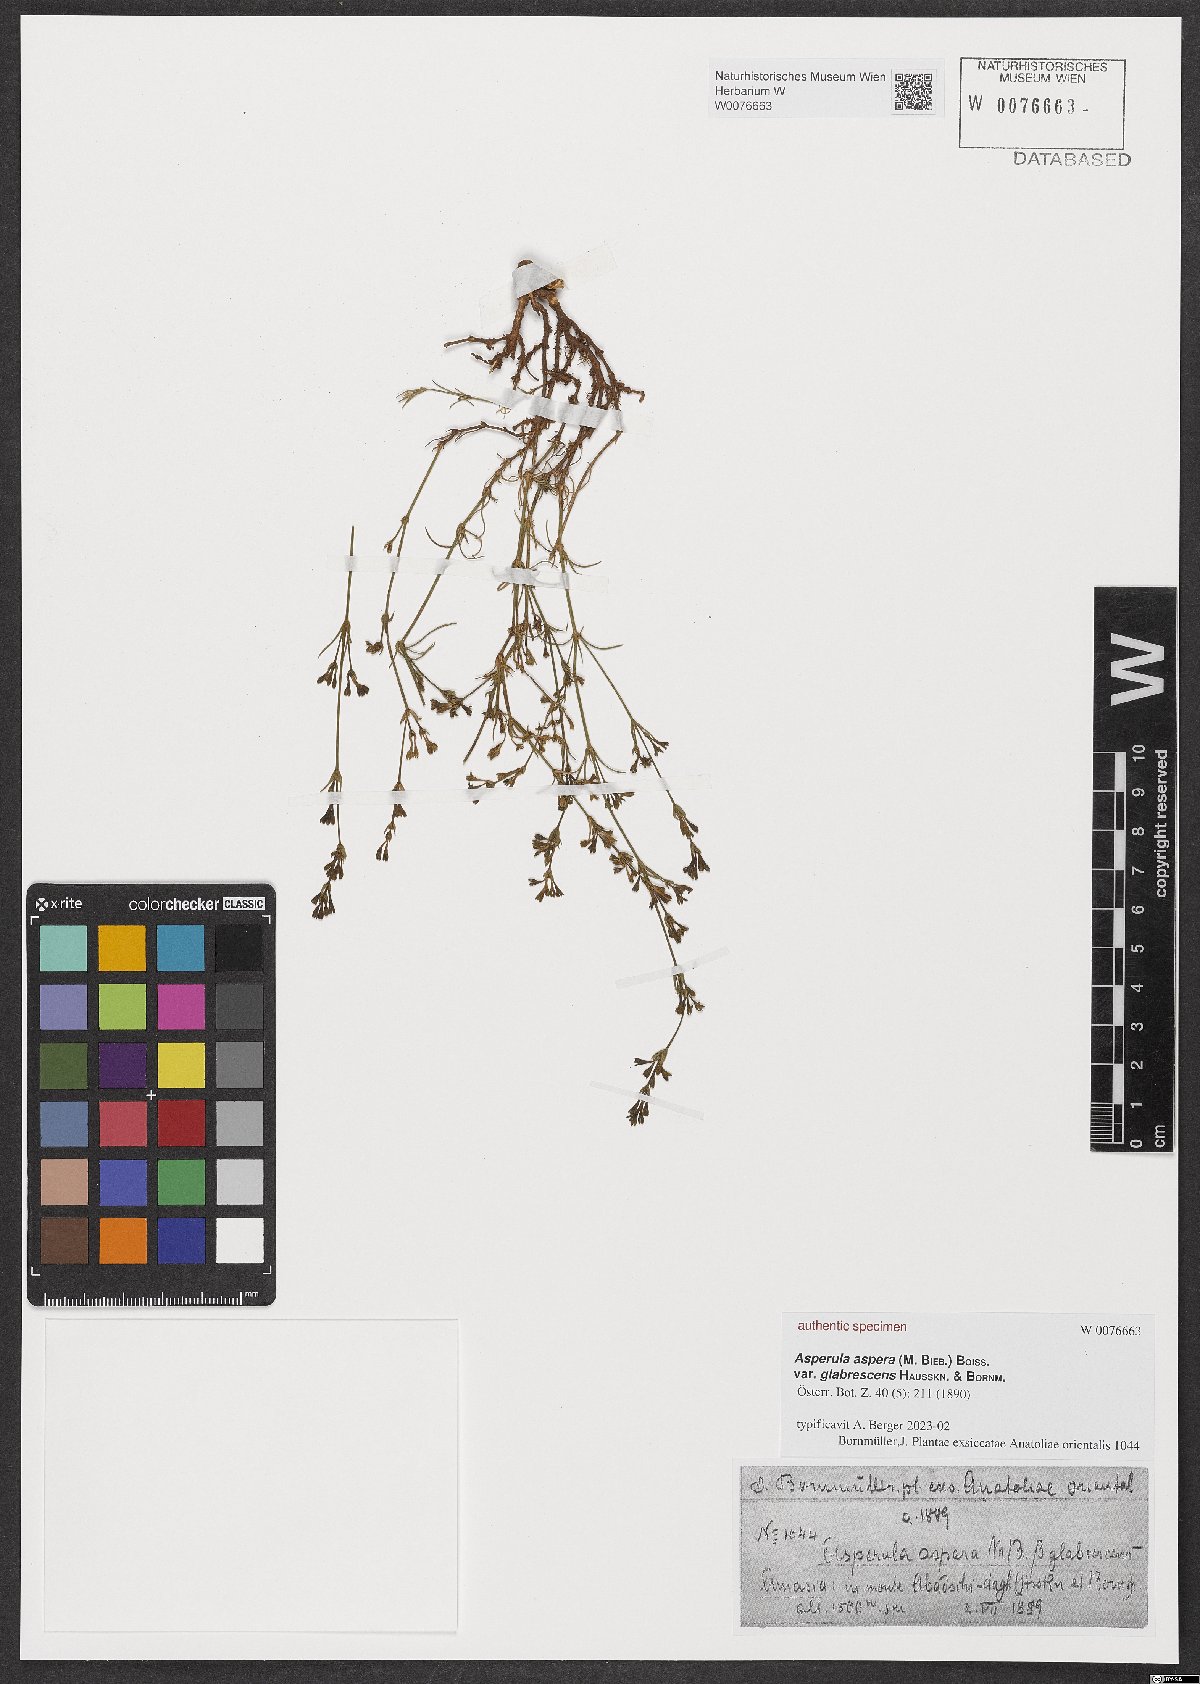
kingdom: Plantae
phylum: Tracheophyta
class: Magnoliopsida
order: Gentianales
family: Rubiaceae
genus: Galium
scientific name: Galium boissierianum
